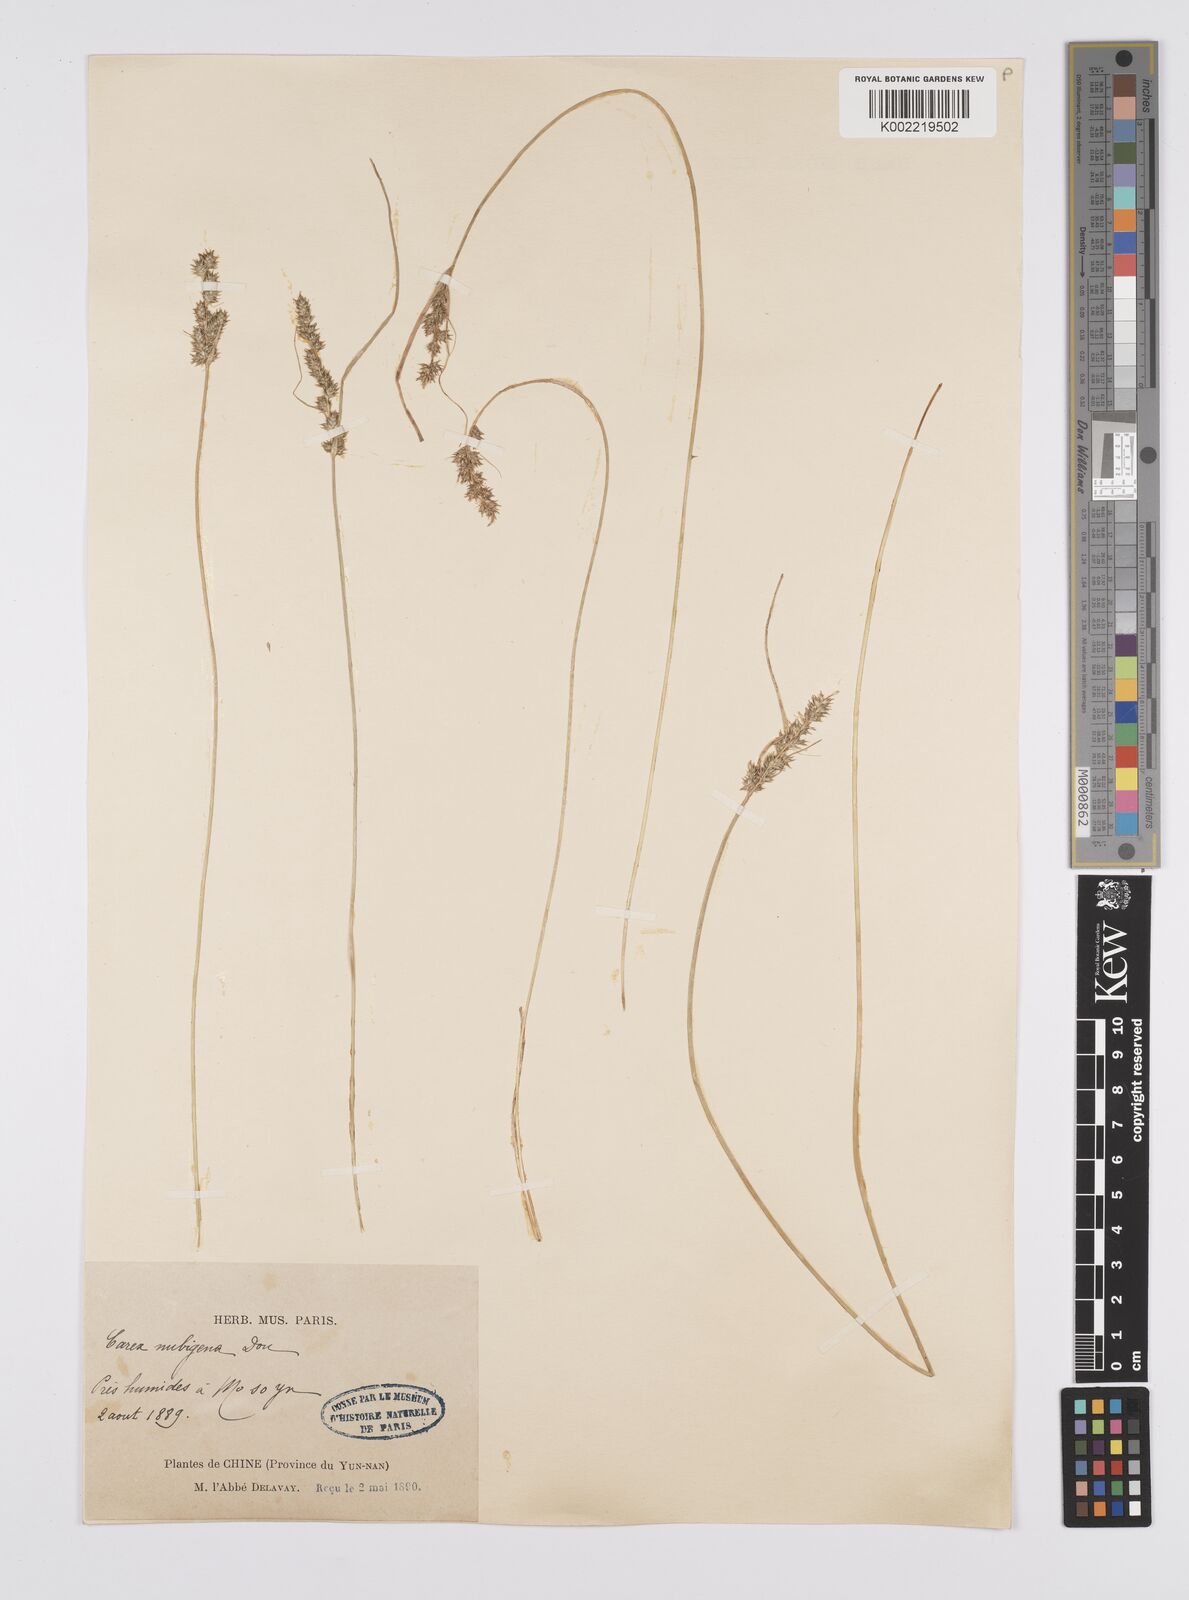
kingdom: Plantae
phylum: Tracheophyta
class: Liliopsida
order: Poales
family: Cyperaceae
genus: Carex
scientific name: Carex nubigena
